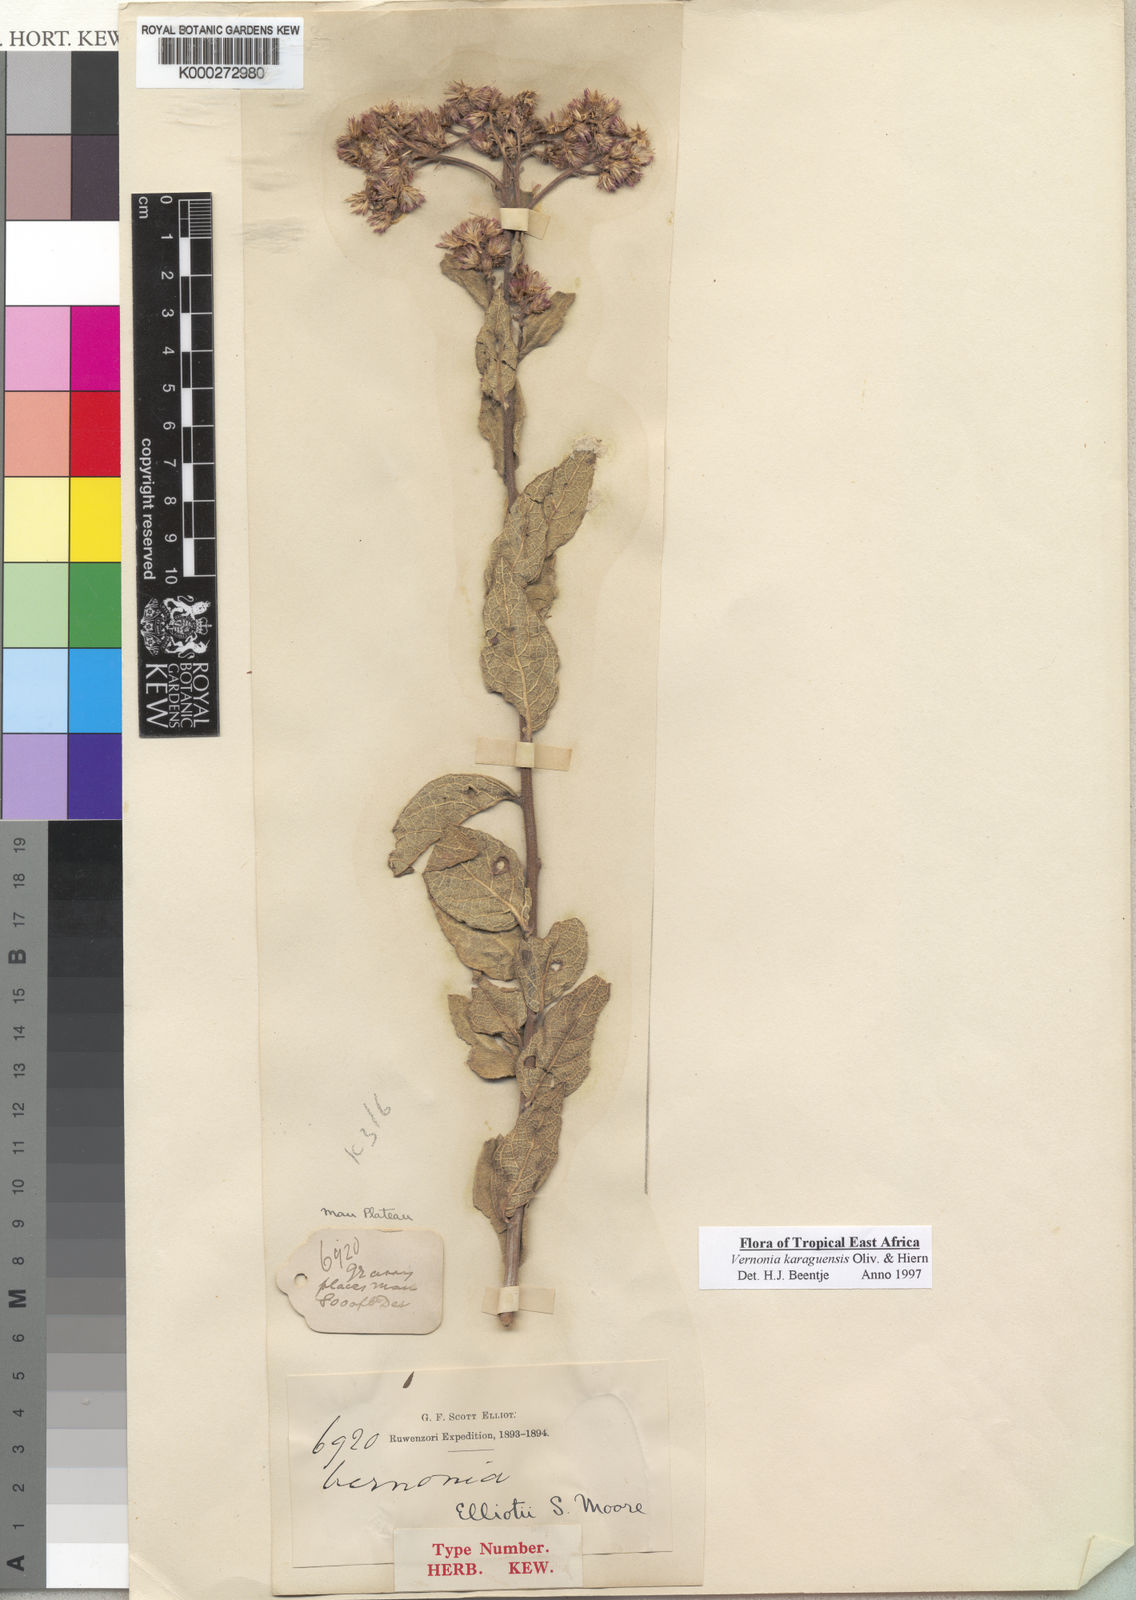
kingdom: Plantae
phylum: Tracheophyta
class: Magnoliopsida
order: Asterales
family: Asteraceae
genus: Orbivestus
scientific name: Orbivestus karaguensis
